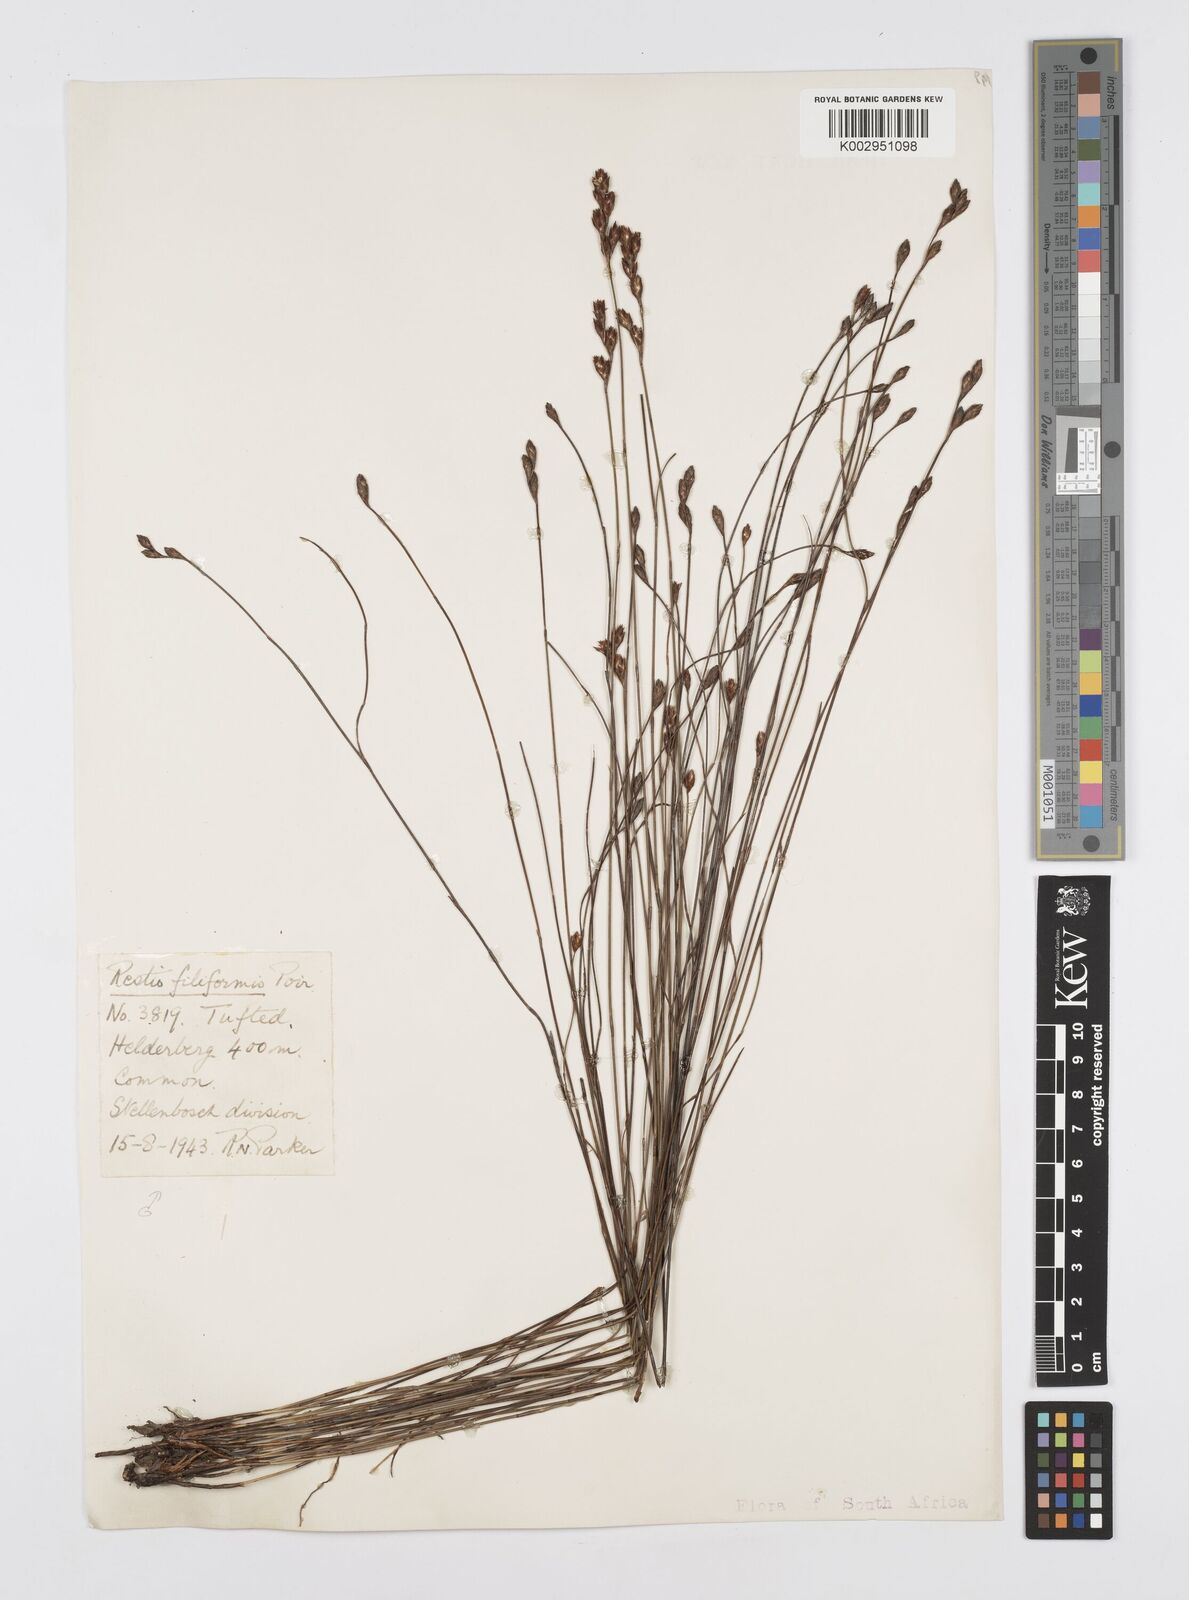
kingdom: Plantae
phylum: Tracheophyta
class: Liliopsida
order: Poales
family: Restionaceae
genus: Restio
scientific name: Restio filiformis
